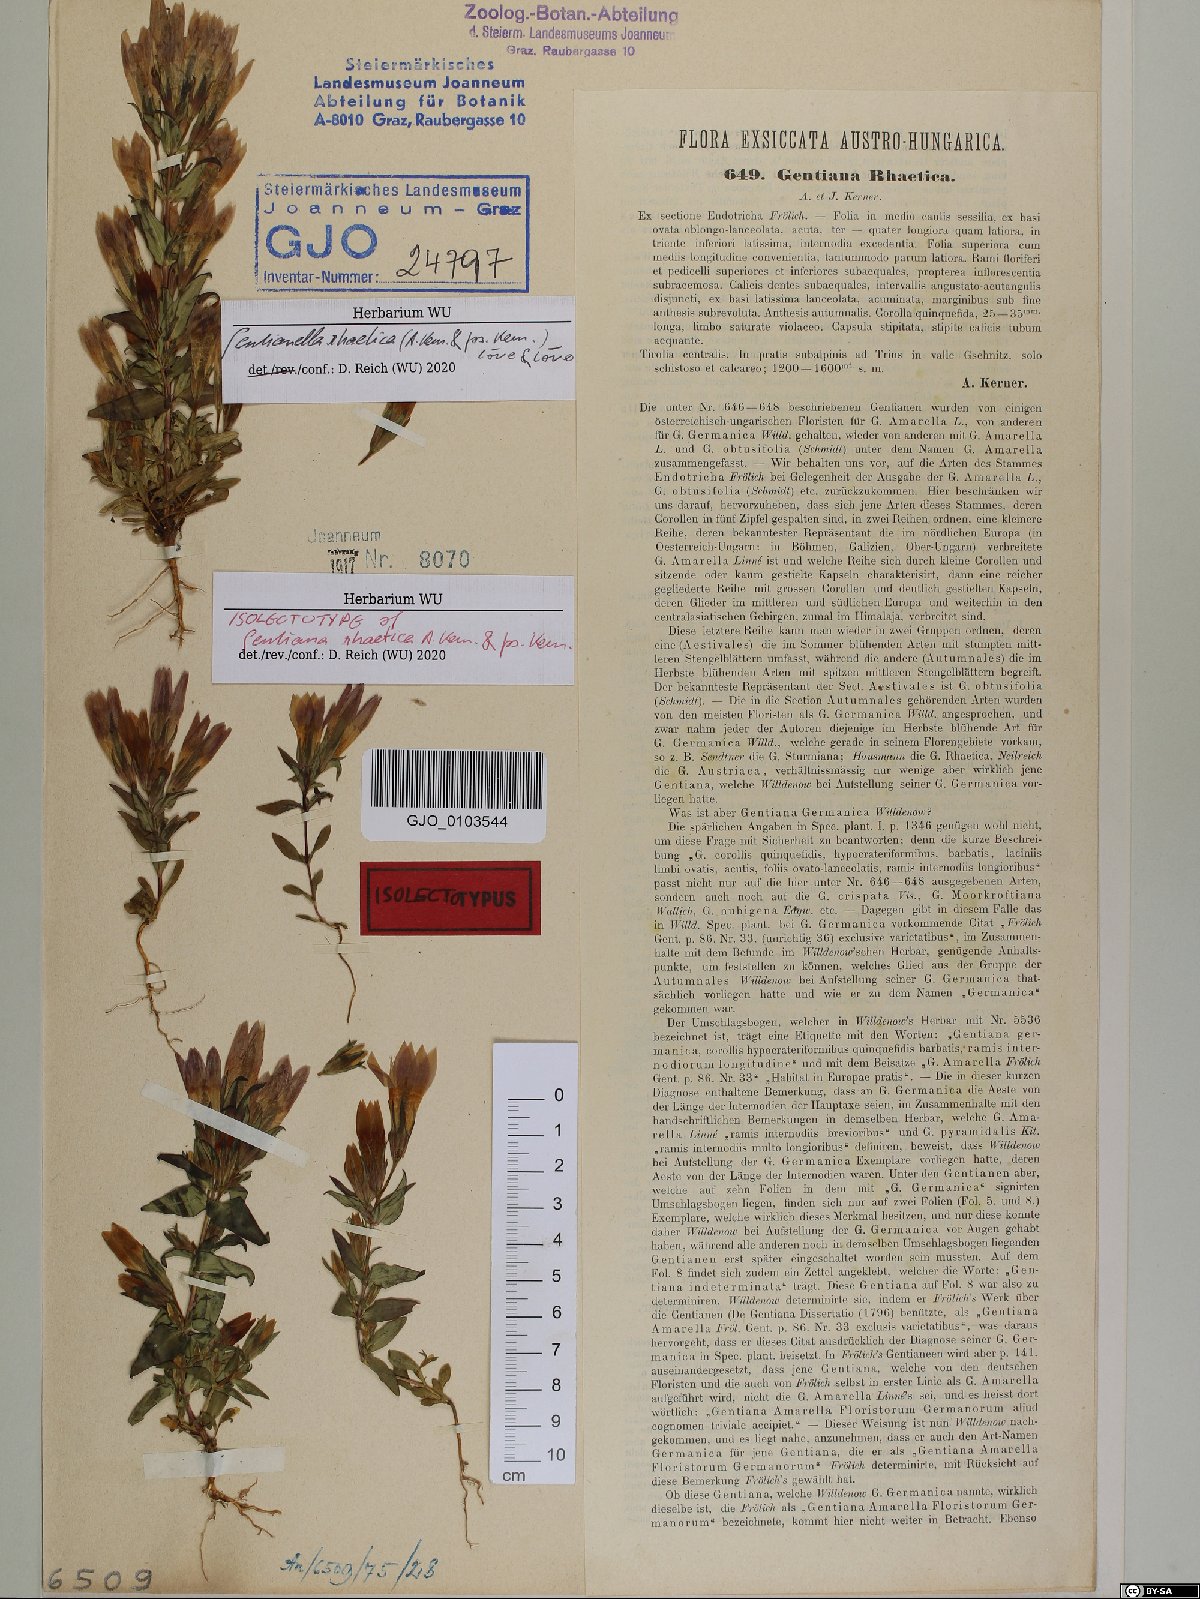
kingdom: Plantae
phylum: Tracheophyta
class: Magnoliopsida
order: Gentianales
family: Gentianaceae
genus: Gentianella
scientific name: Gentianella rhaetica
